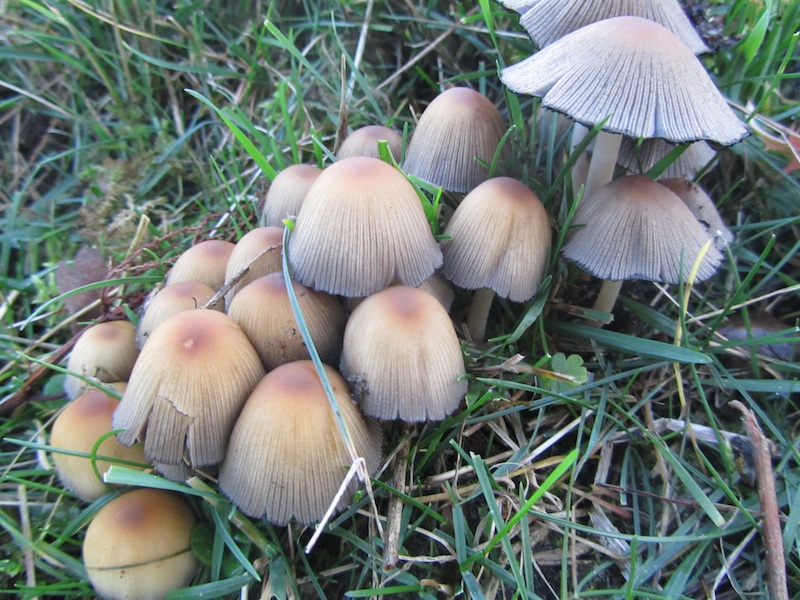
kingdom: Fungi
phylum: Basidiomycota
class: Agaricomycetes
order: Agaricales
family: Psathyrellaceae
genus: Coprinellus
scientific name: Coprinellus micaceus
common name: glimmer-blækhat
